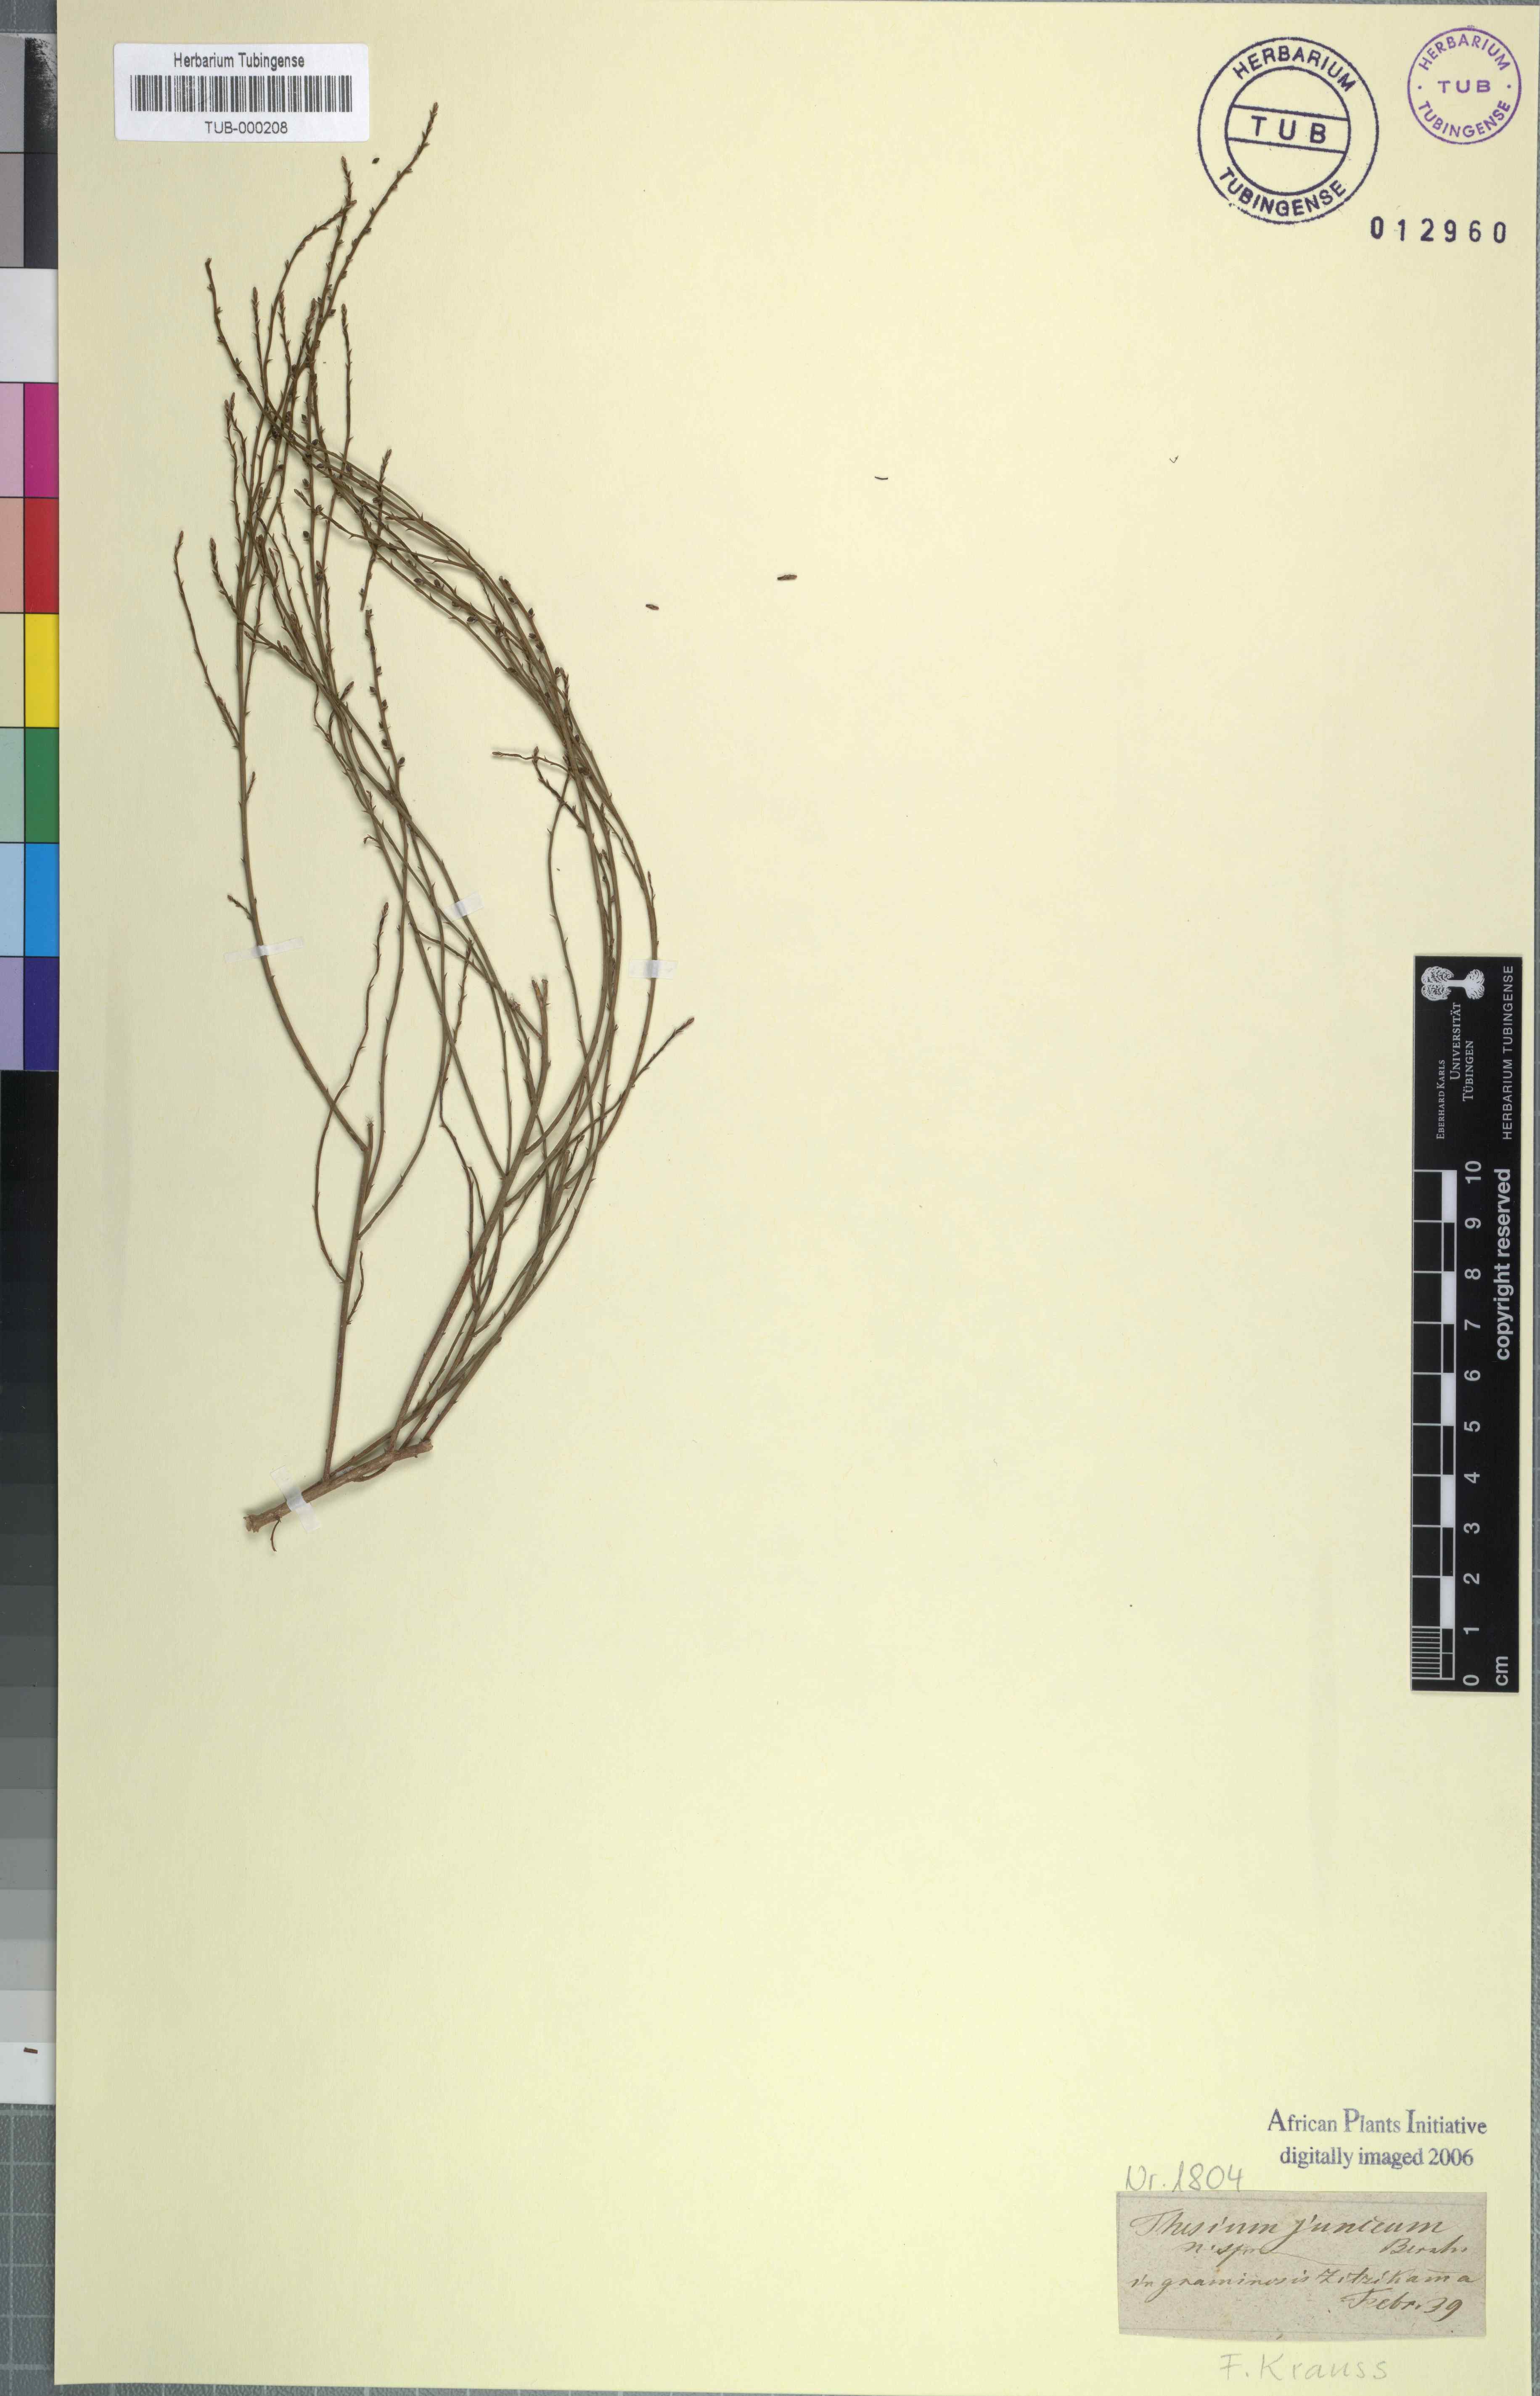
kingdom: Plantae
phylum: Tracheophyta
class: Magnoliopsida
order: Santalales
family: Thesiaceae
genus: Thesium
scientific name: Thesium junceum
